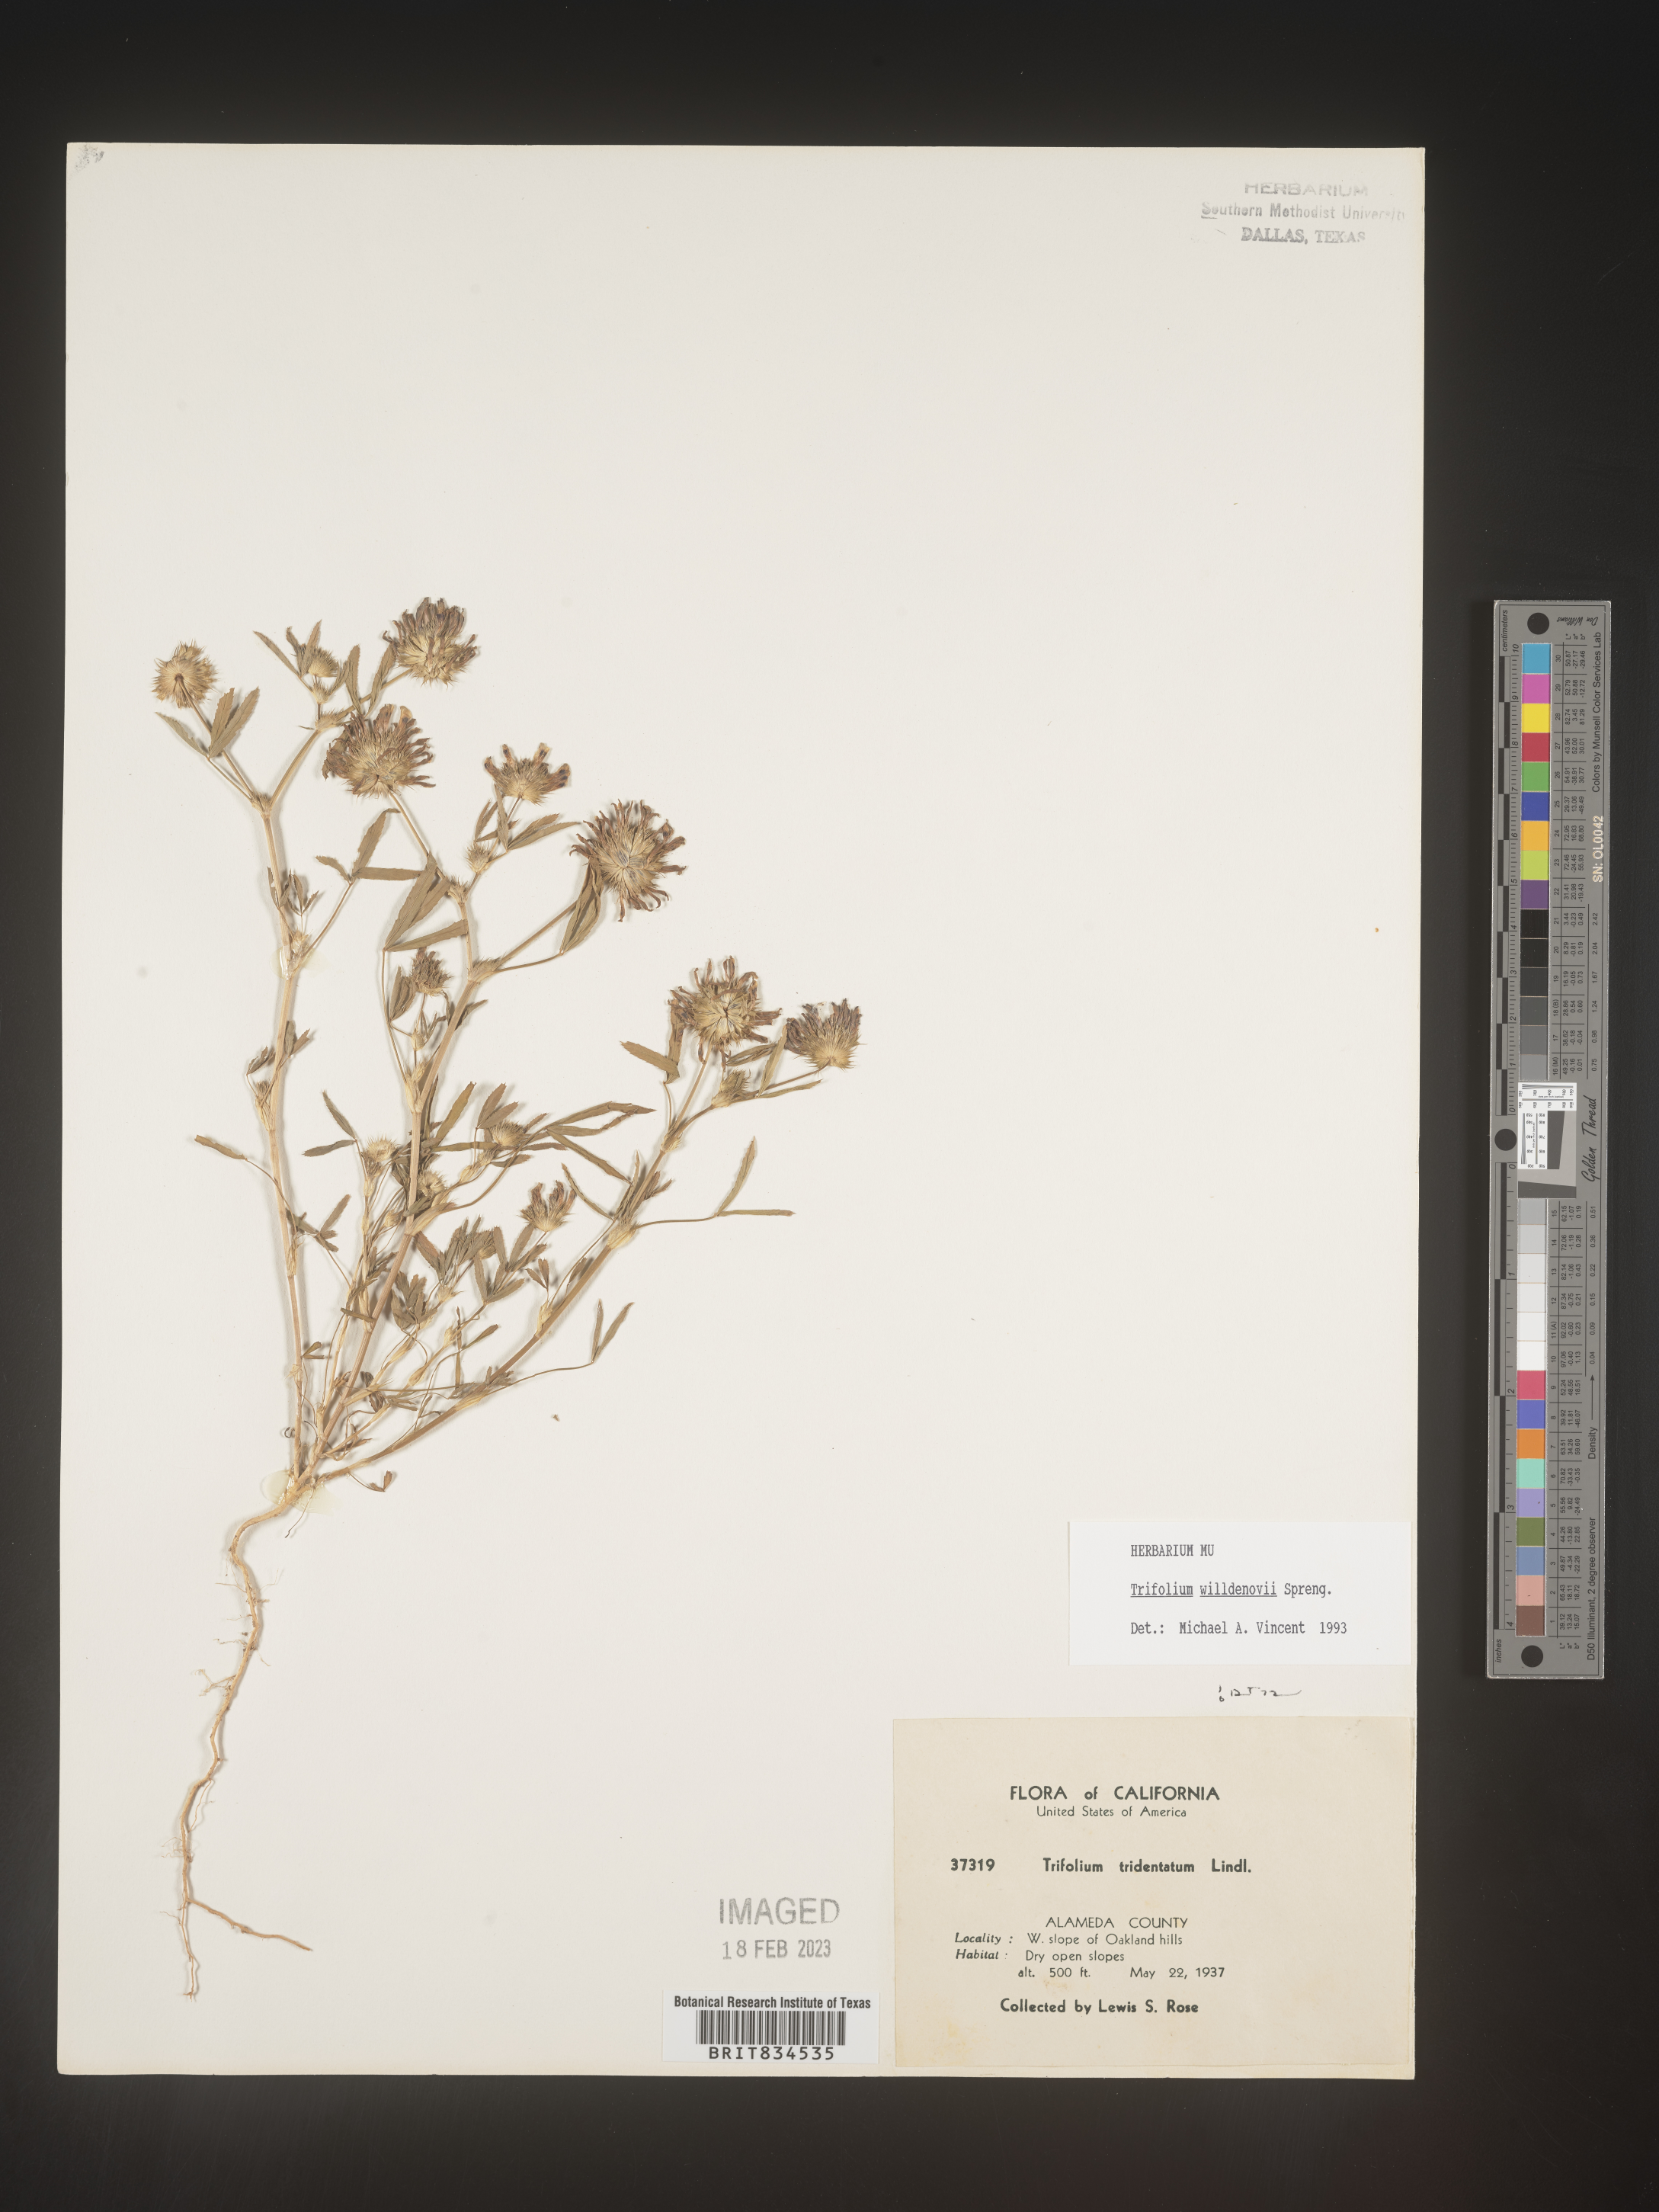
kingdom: Plantae
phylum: Tracheophyta
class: Magnoliopsida
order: Fabales
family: Fabaceae
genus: Trifolium
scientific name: Trifolium
